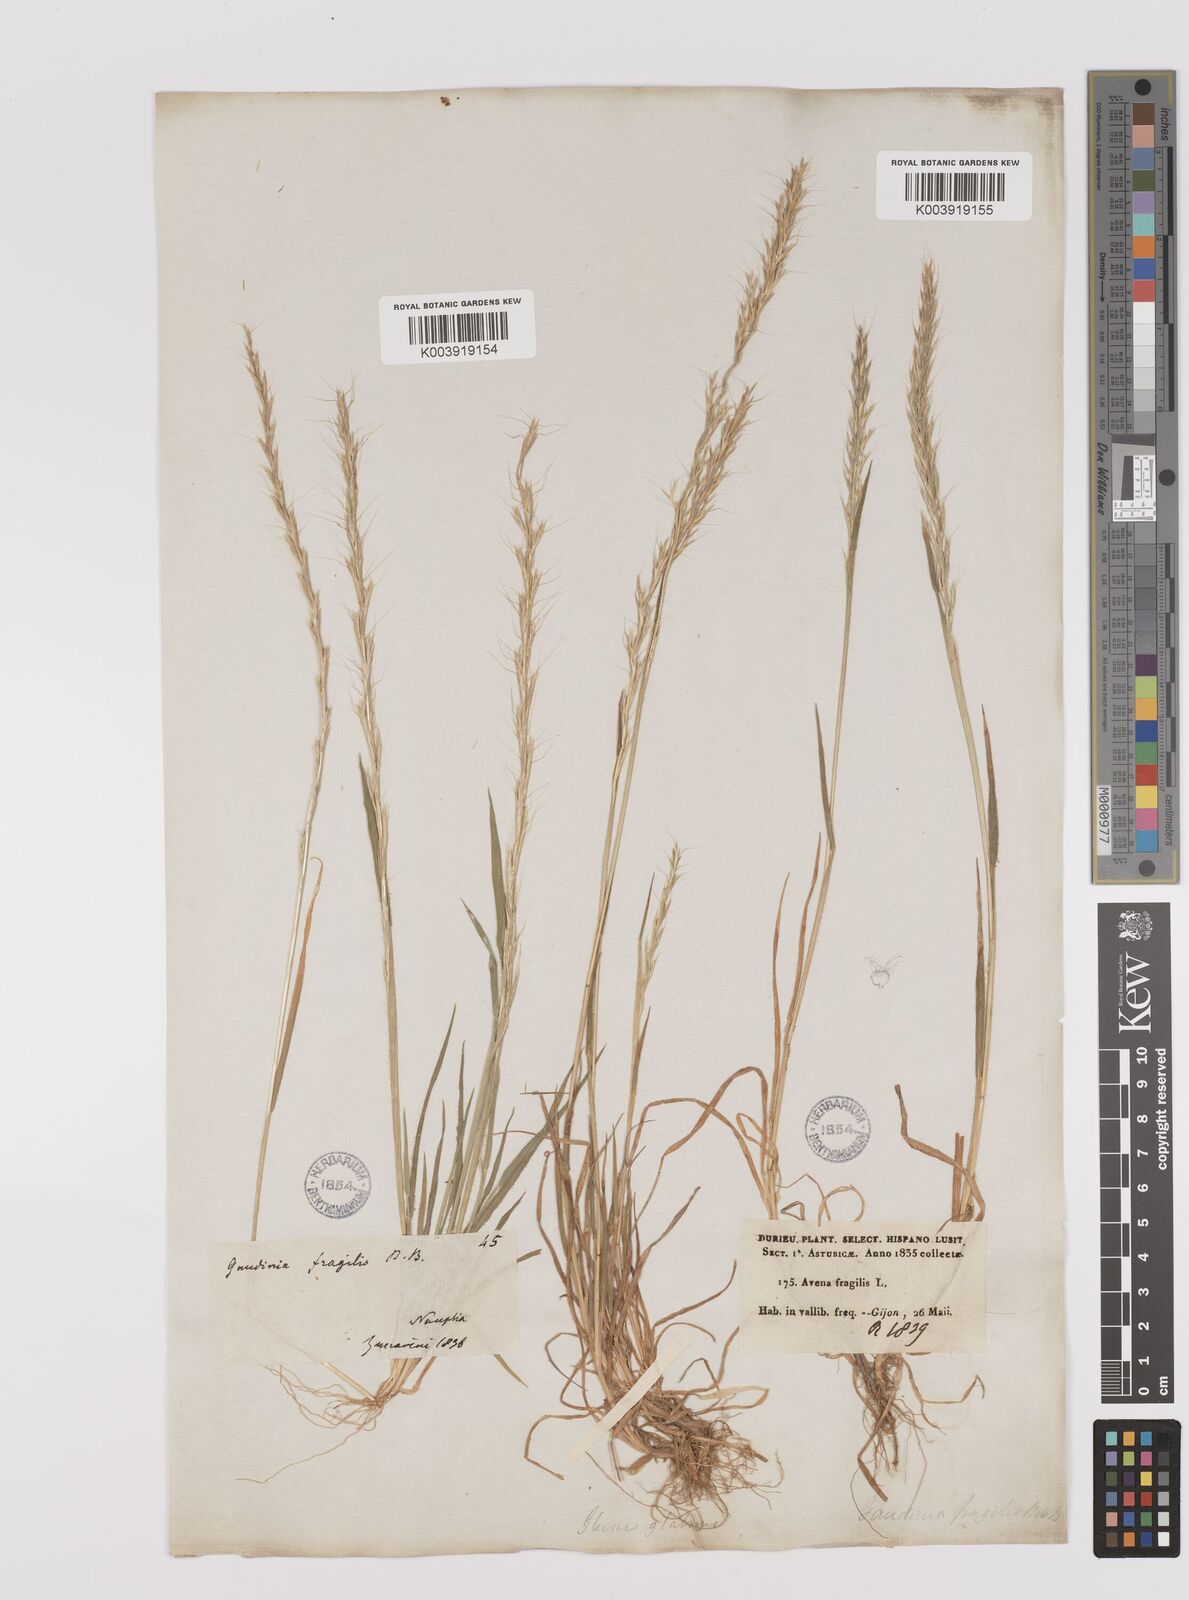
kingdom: Plantae
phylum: Tracheophyta
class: Liliopsida
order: Poales
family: Poaceae
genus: Gaudinia
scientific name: Gaudinia fragilis
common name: French oat-grass
